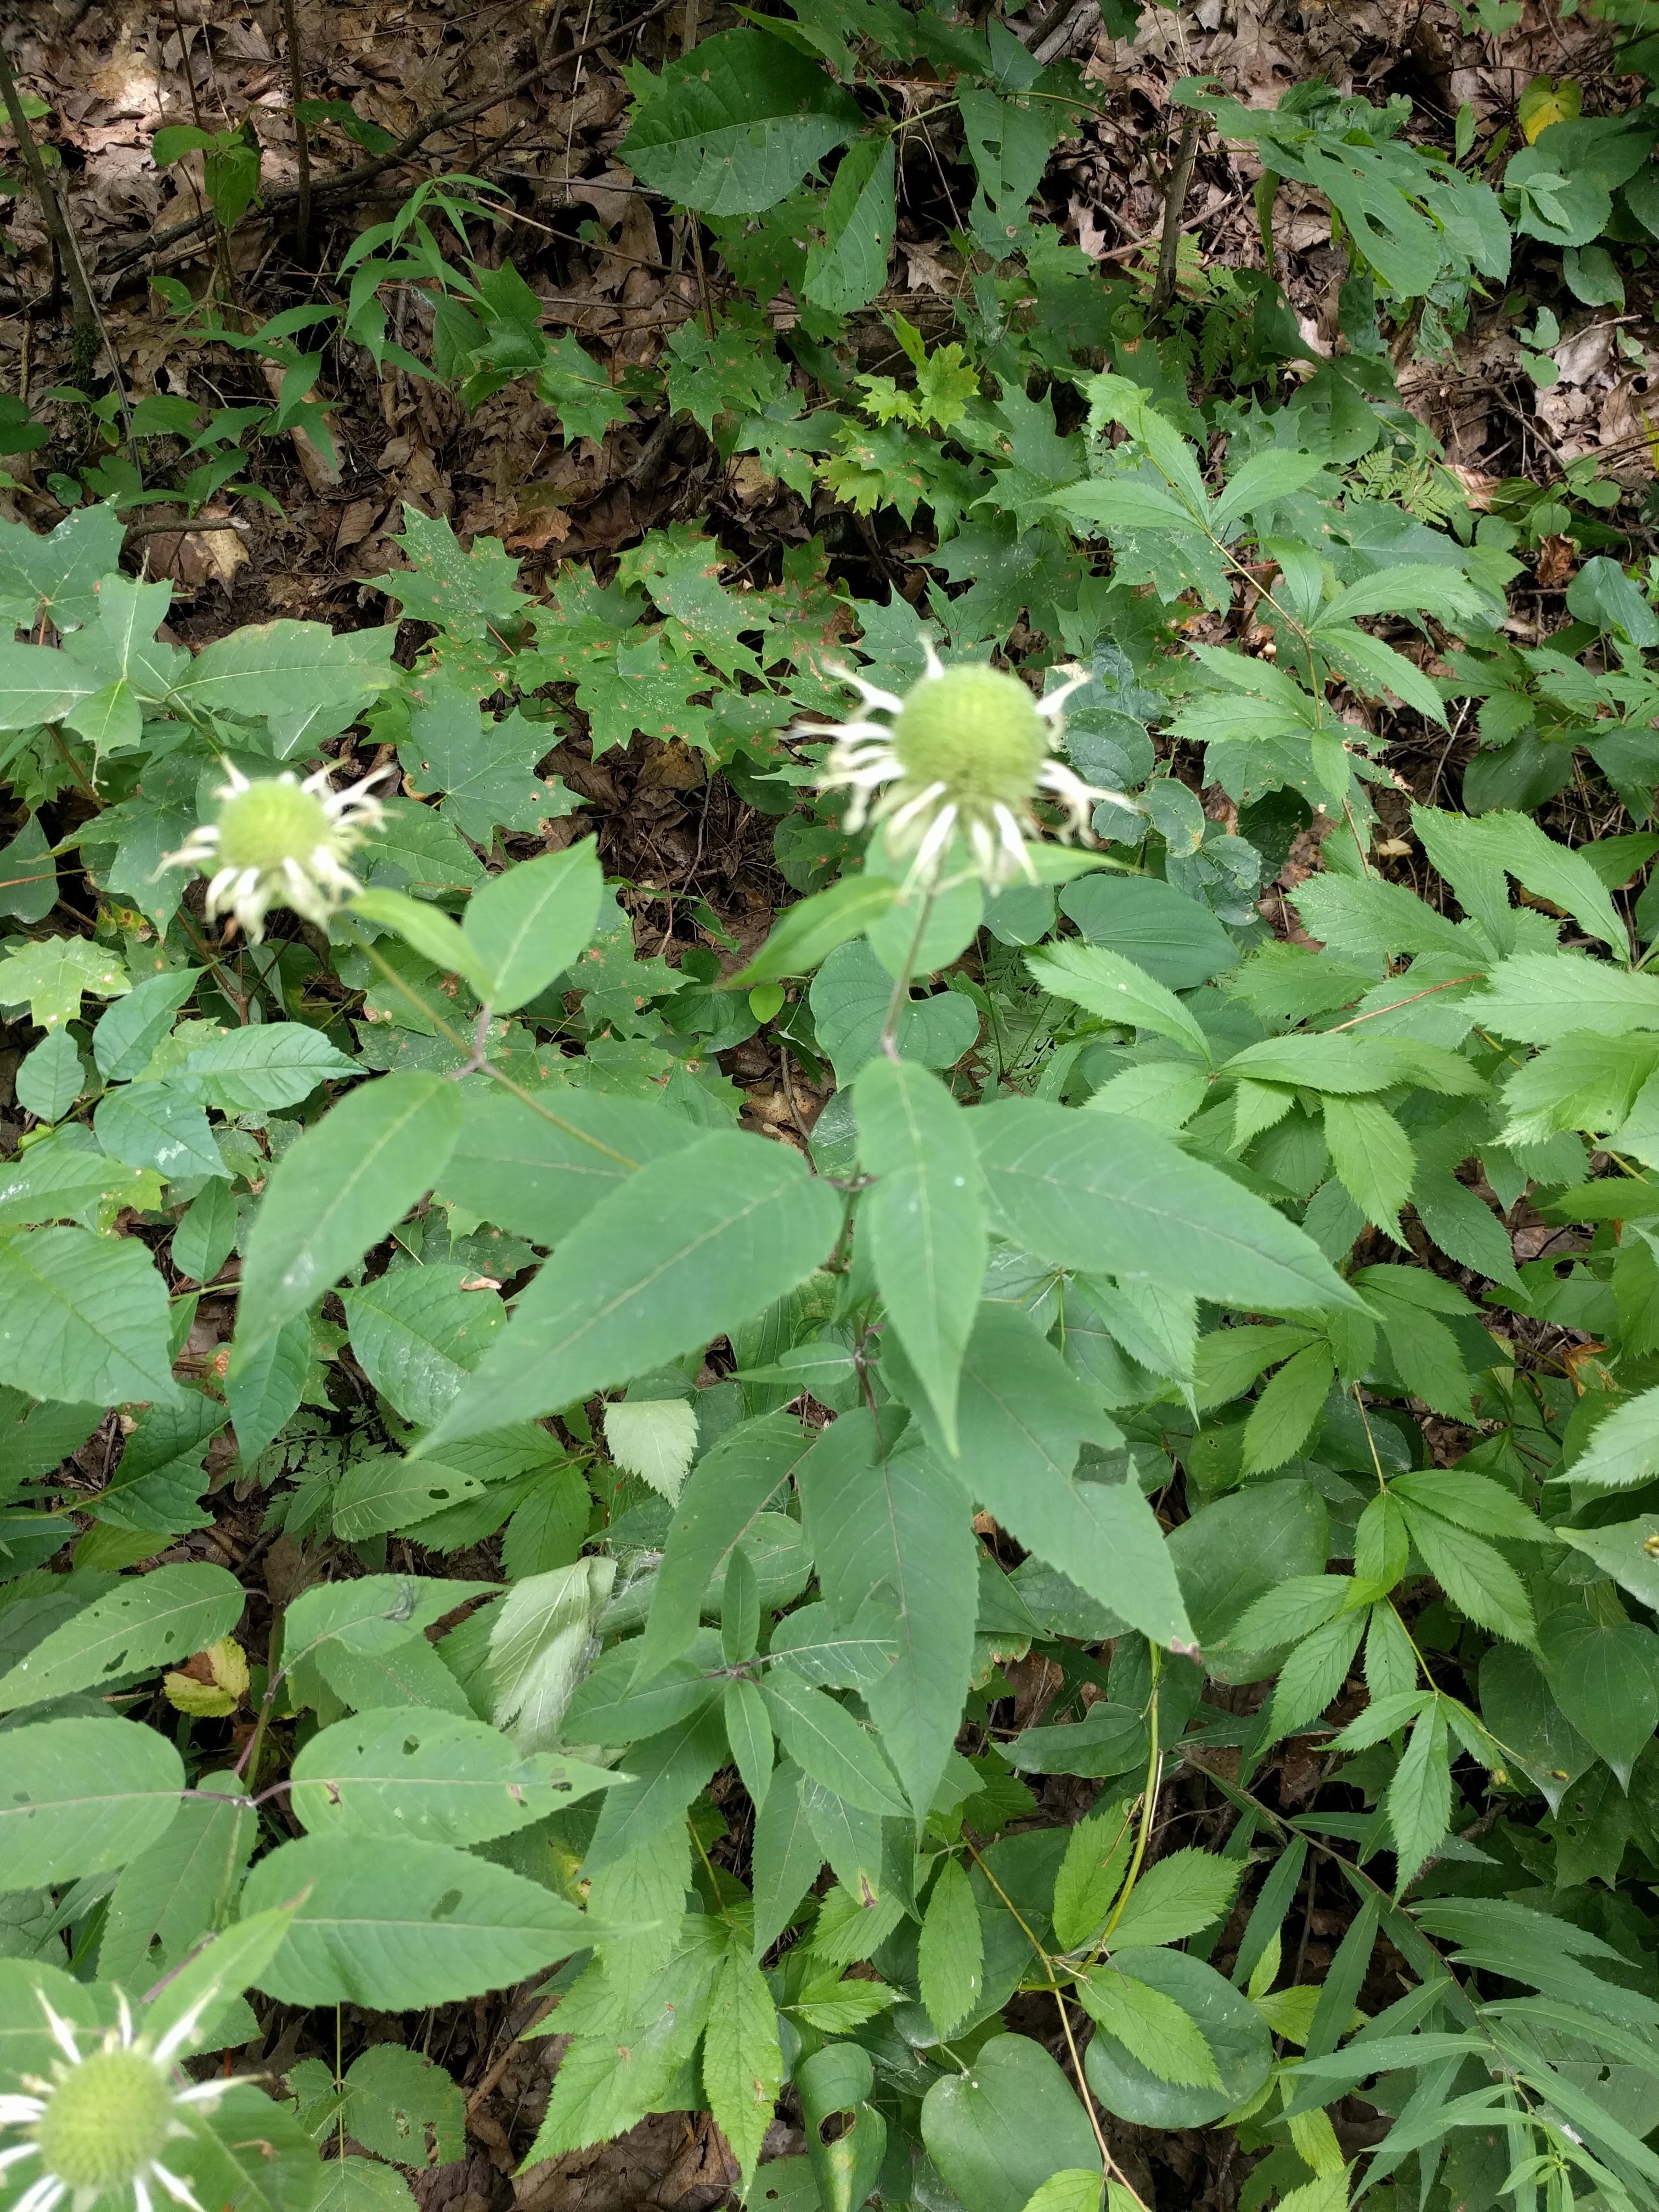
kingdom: Plantae
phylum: Tracheophyta
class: Magnoliopsida
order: Lamiales
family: Lamiaceae
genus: Monarda
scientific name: Monarda clinopodia
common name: Basil beebalm
